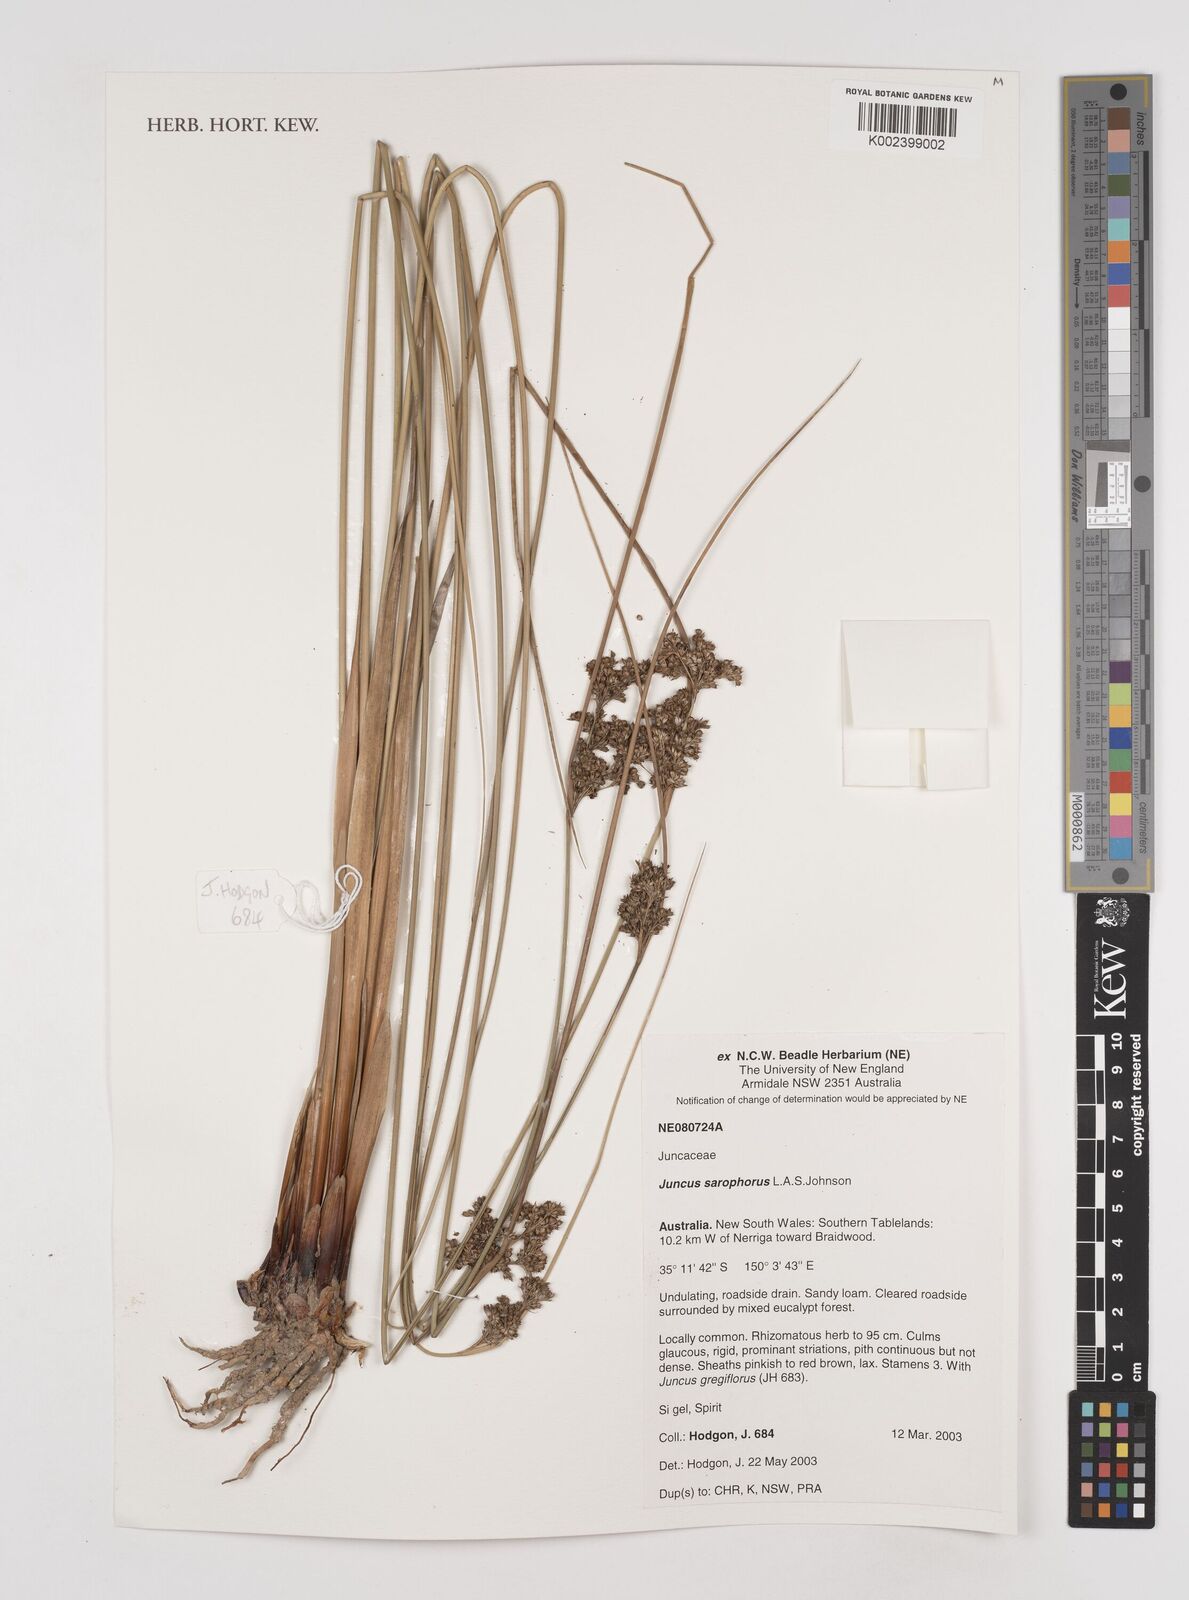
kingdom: Plantae
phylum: Tracheophyta
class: Liliopsida
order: Poales
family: Juncaceae
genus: Juncus
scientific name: Juncus sarophorus
